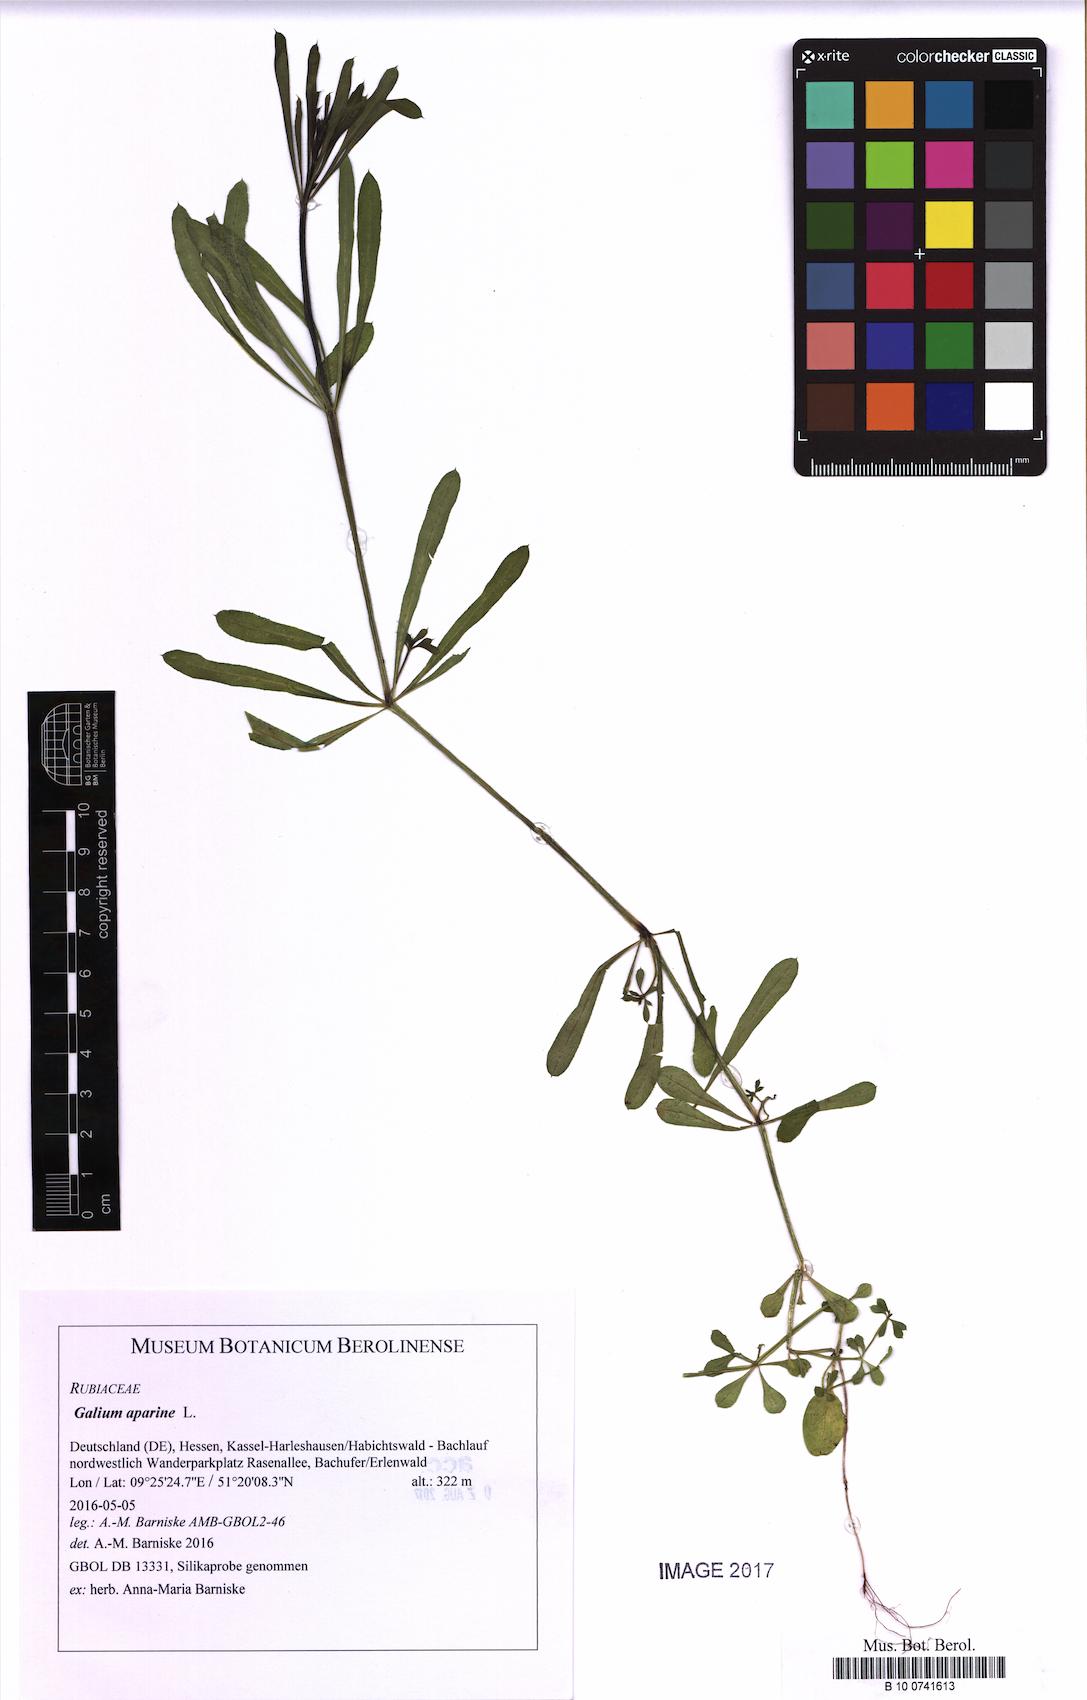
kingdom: Plantae
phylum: Tracheophyta
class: Magnoliopsida
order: Gentianales
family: Rubiaceae
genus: Galium
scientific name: Galium aparine
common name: Cleavers
